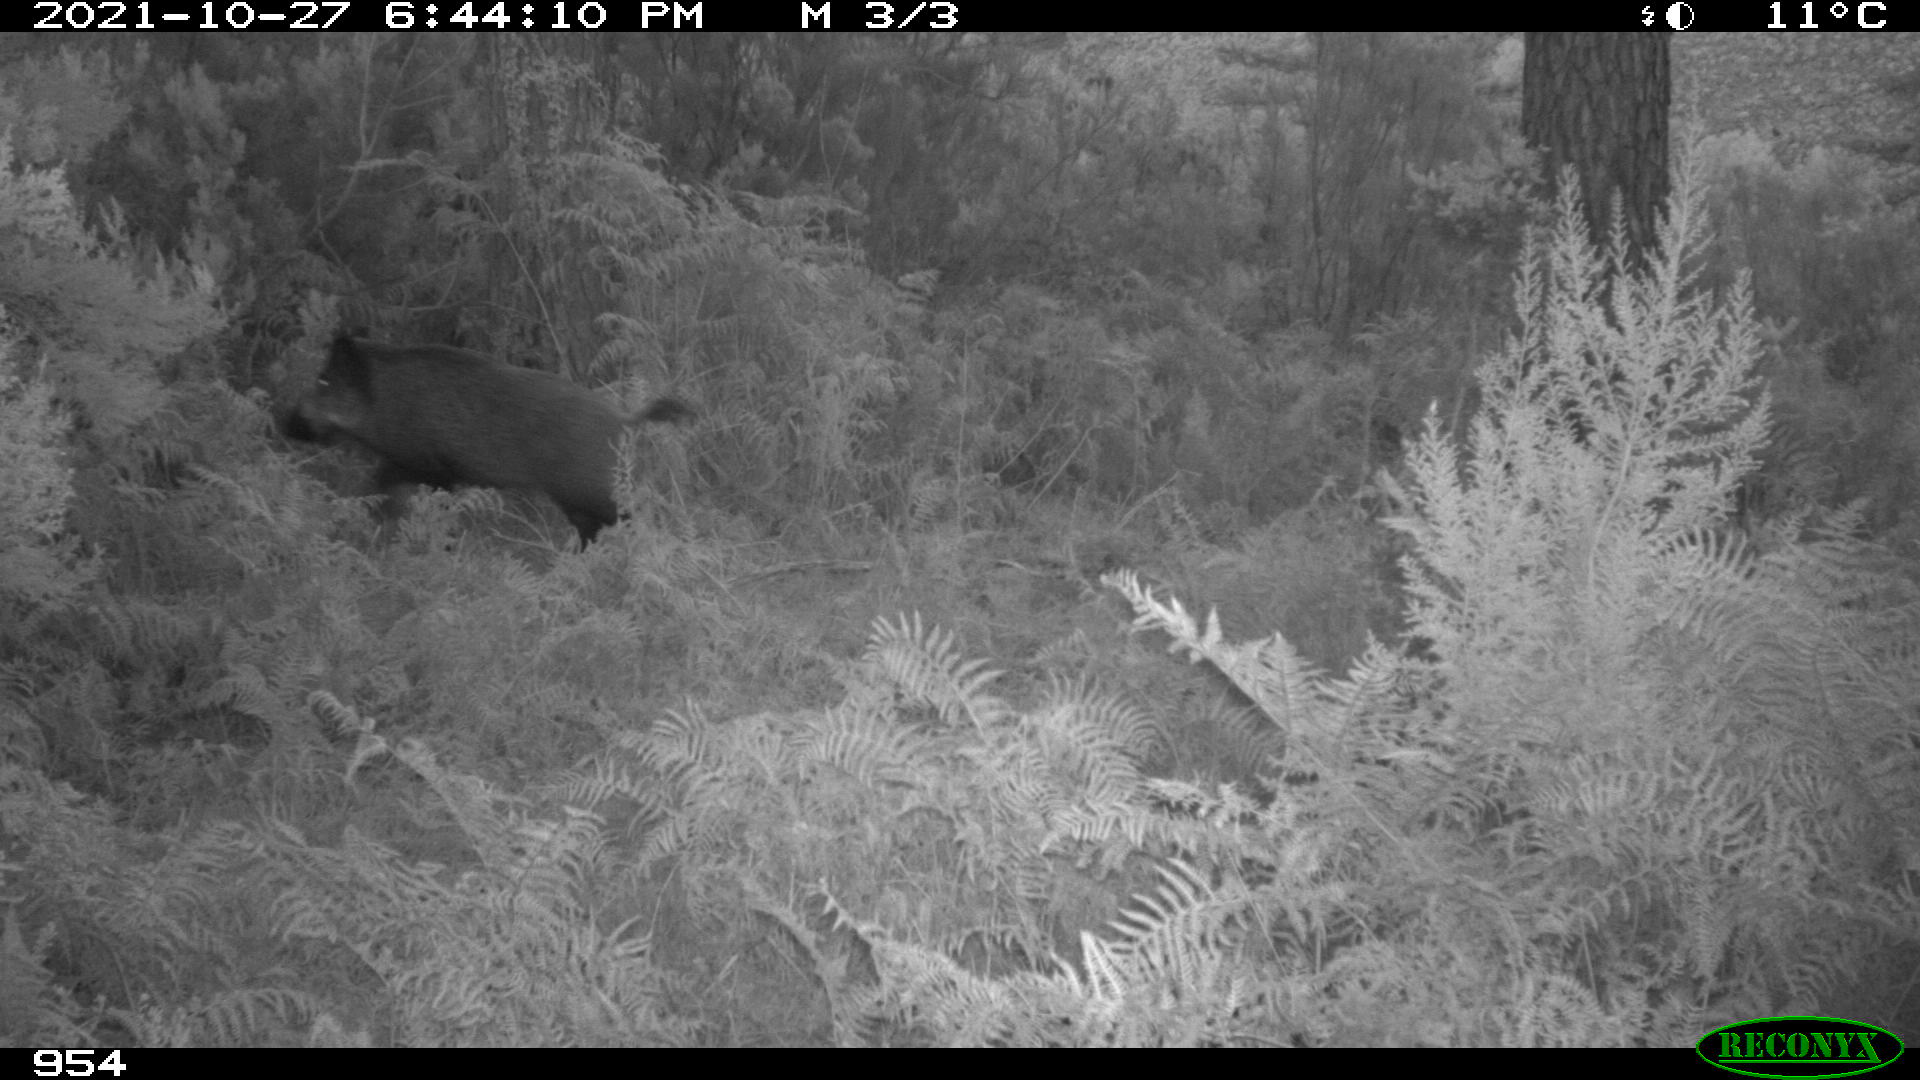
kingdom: Animalia
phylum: Chordata
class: Mammalia
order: Artiodactyla
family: Suidae
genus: Sus
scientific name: Sus scrofa
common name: Wild boar
